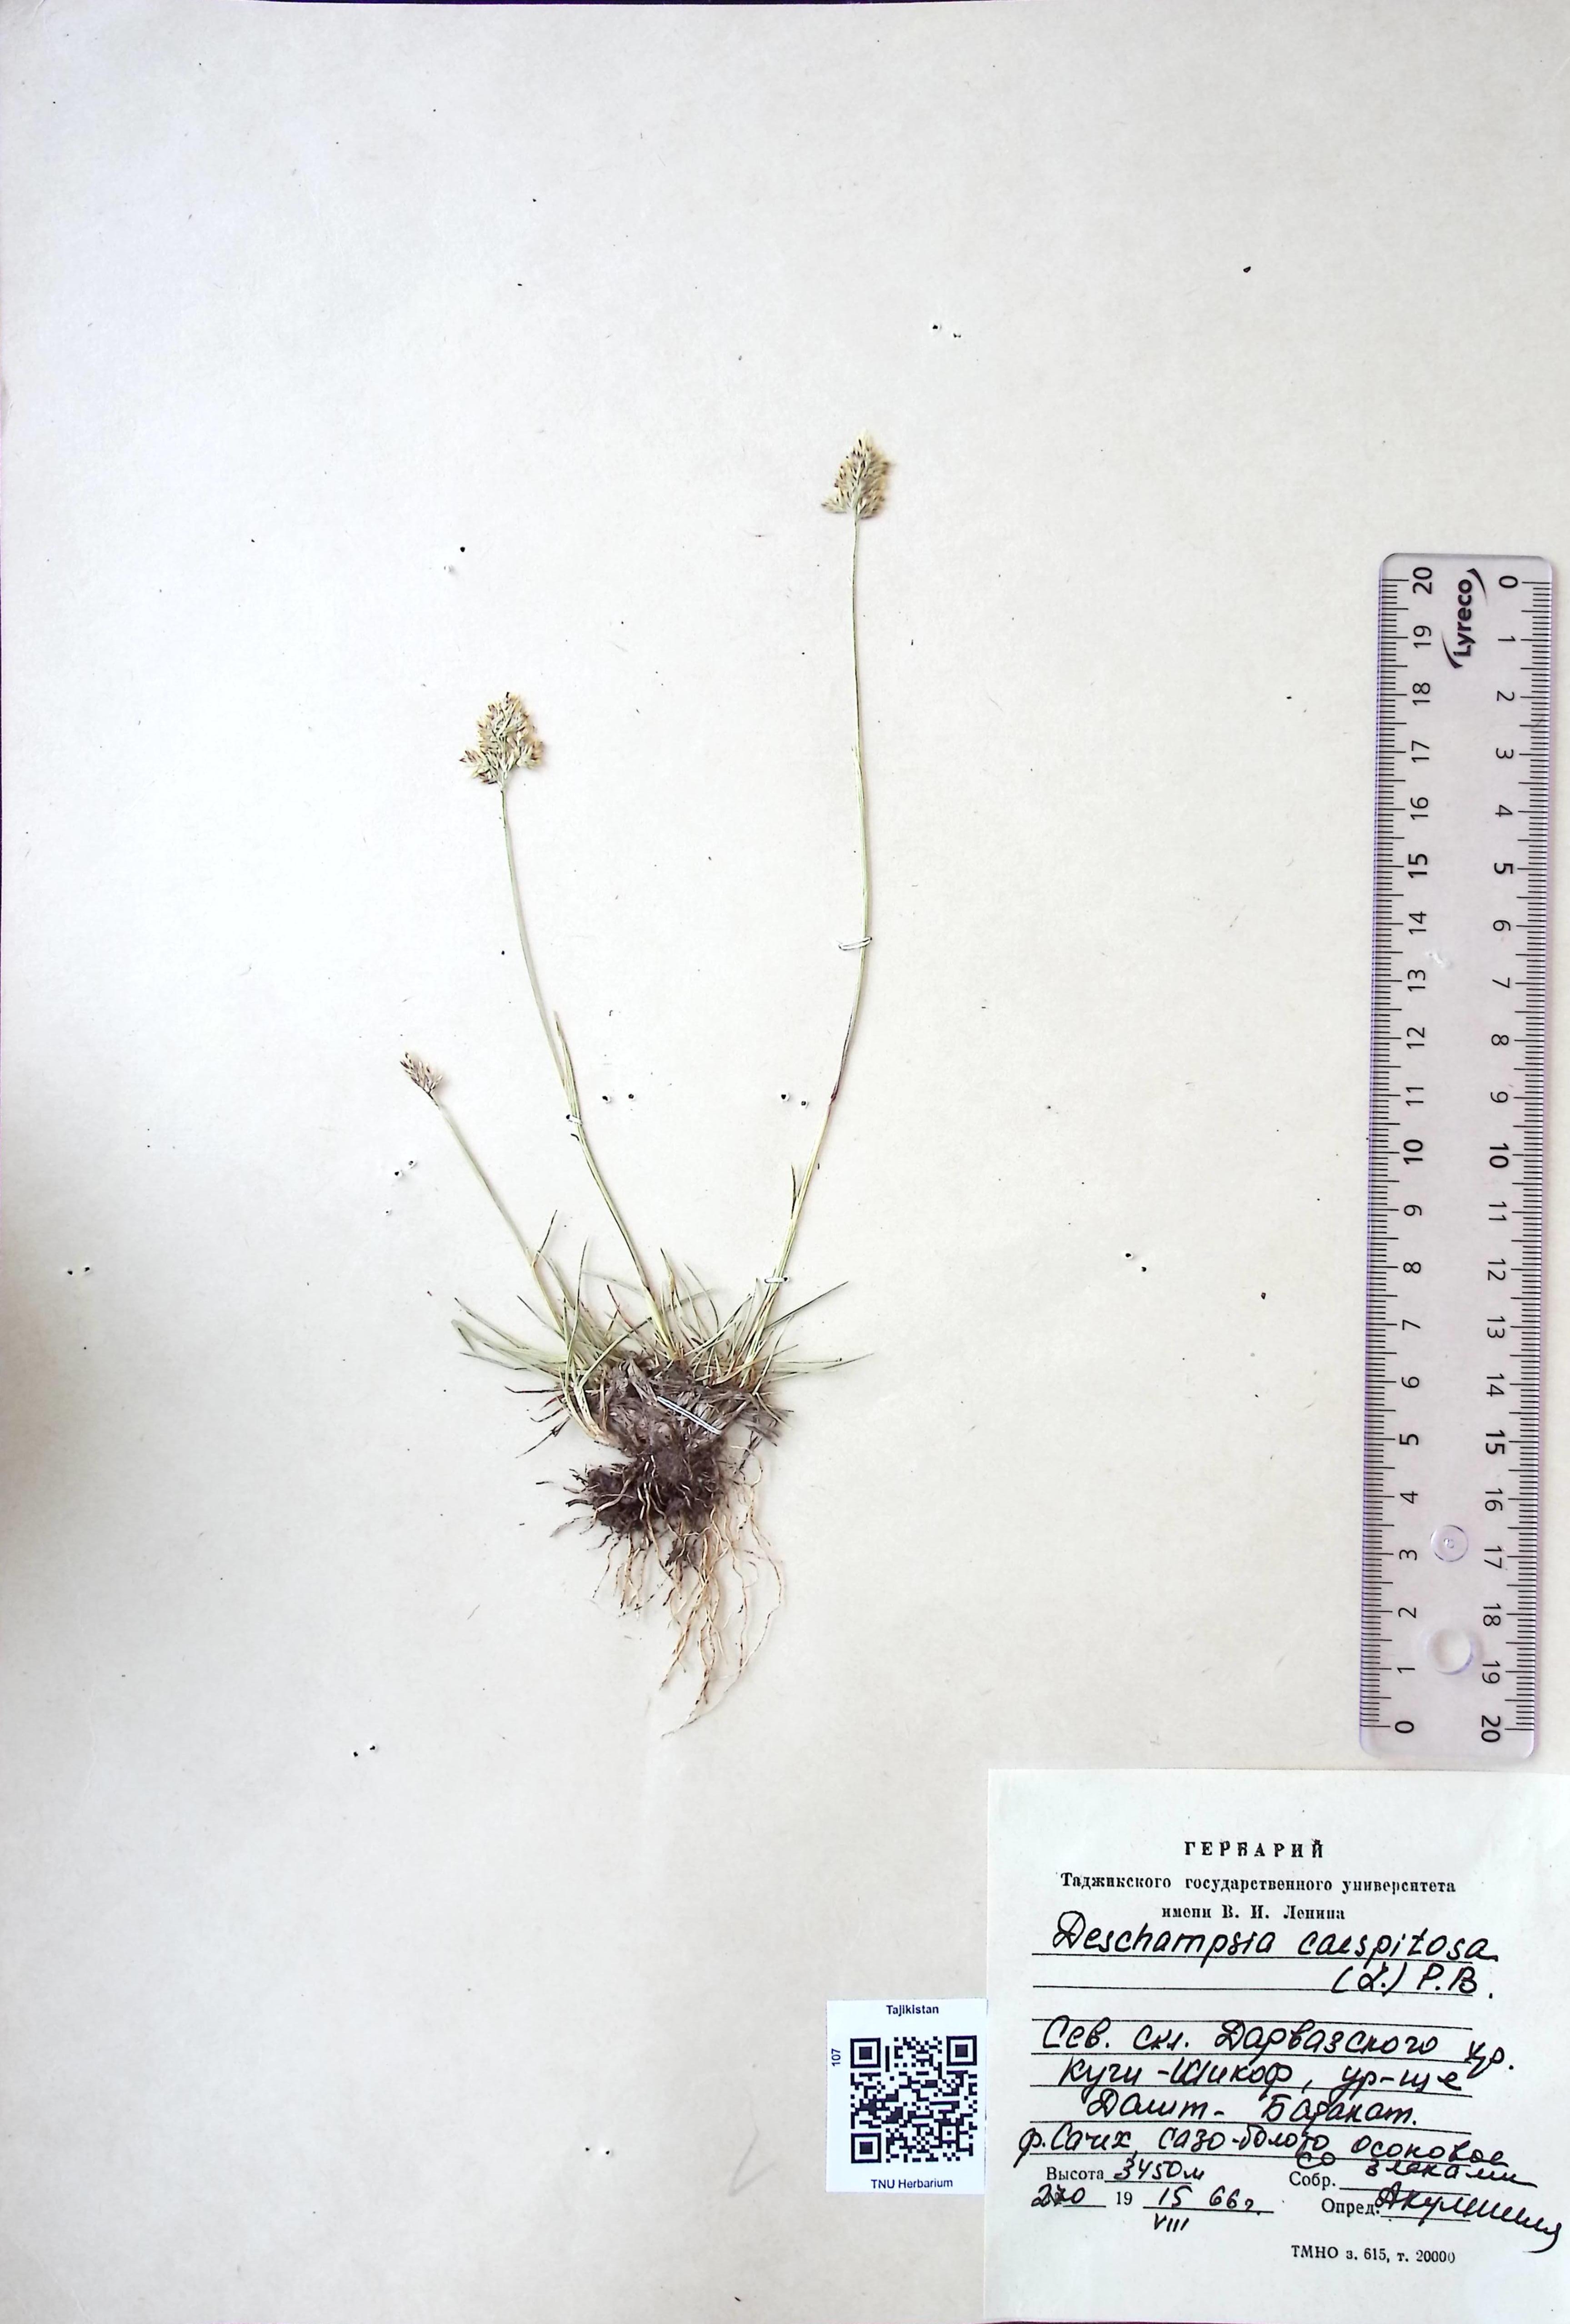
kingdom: Plantae
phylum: Tracheophyta
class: Liliopsida
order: Poales
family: Poaceae
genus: Deschampsia
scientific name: Deschampsia cespitosa
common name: Tufted hair-grass
